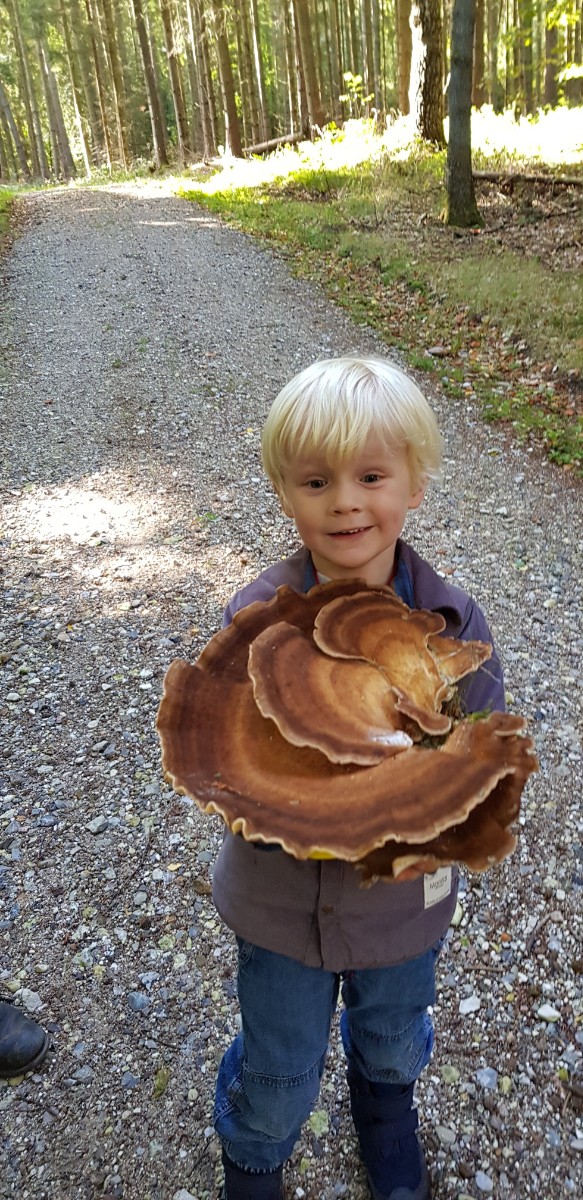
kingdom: Fungi
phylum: Basidiomycota
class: Agaricomycetes
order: Polyporales
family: Meripilaceae
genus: Meripilus
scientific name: Meripilus giganteus
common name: kæmpeporesvamp
